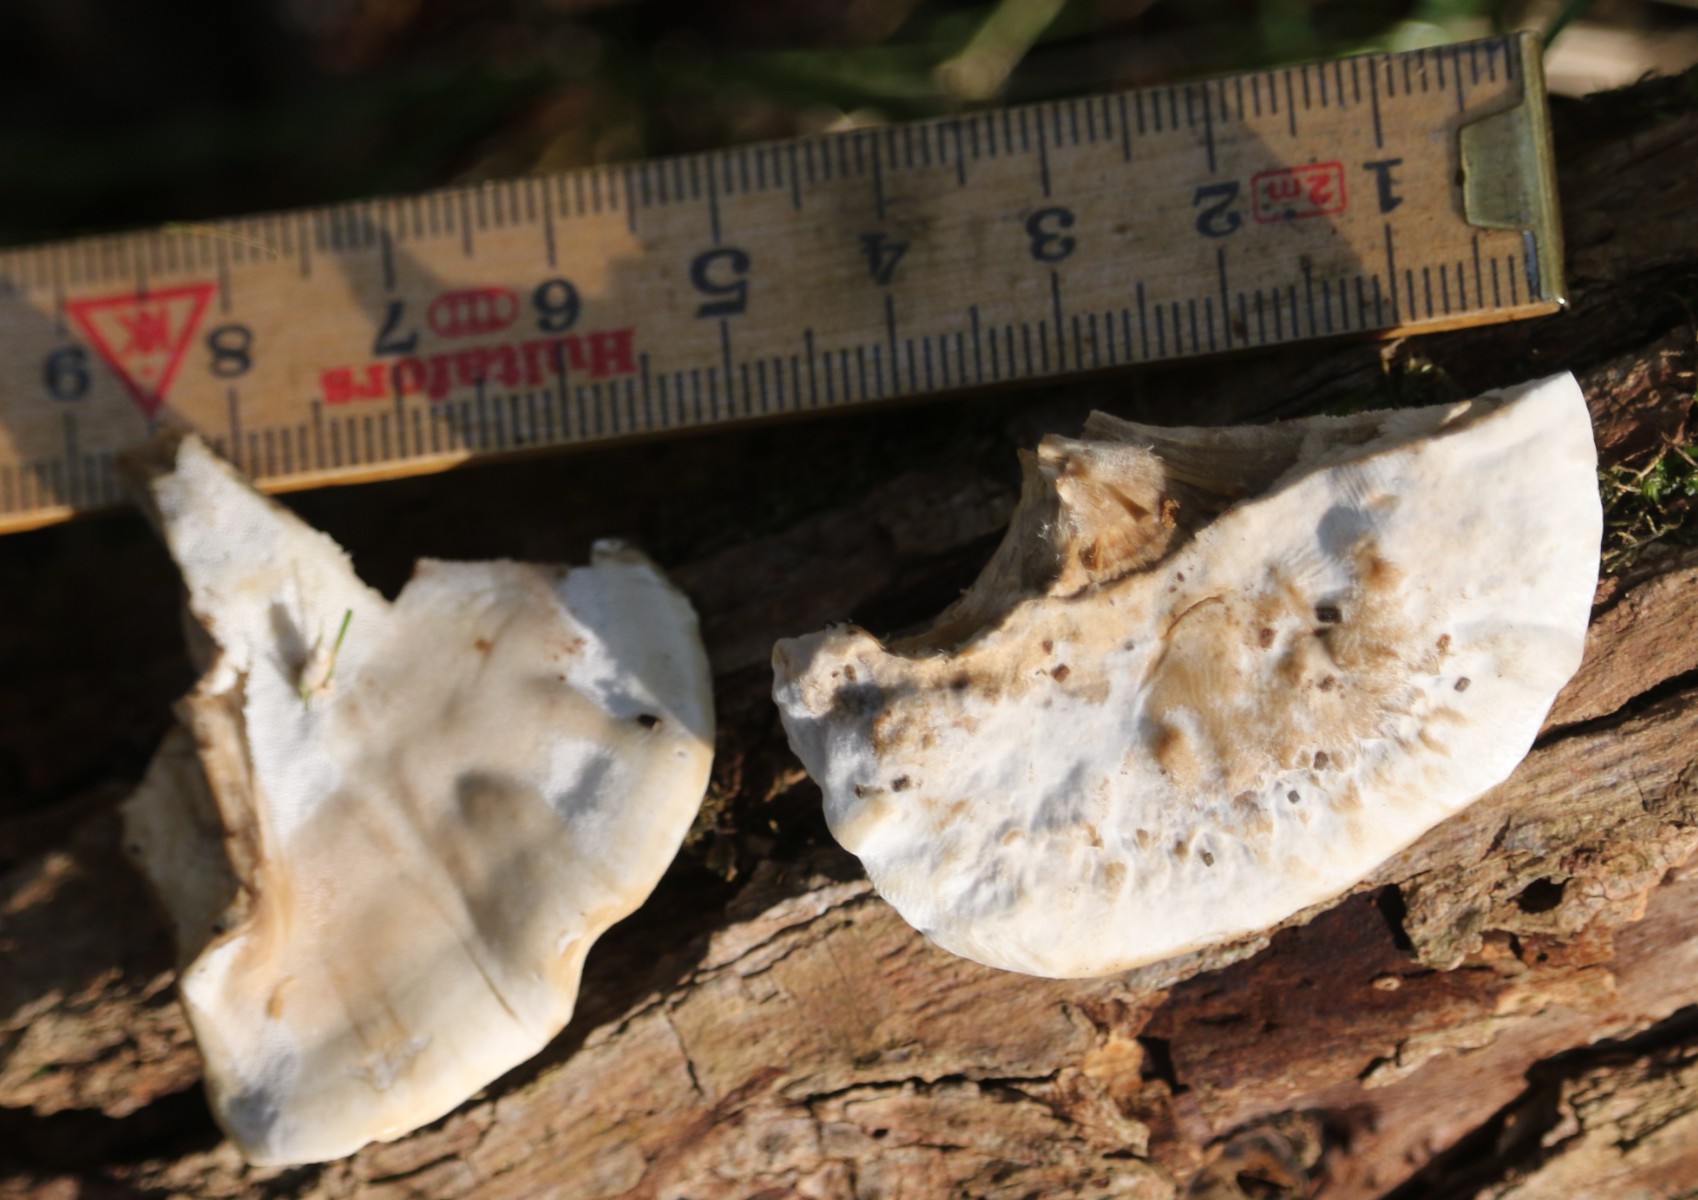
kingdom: Fungi
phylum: Basidiomycota
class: Agaricomycetes
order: Polyporales
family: Phanerochaetaceae
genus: Bjerkandera
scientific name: Bjerkandera fumosa
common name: grågul sodporesvamp
